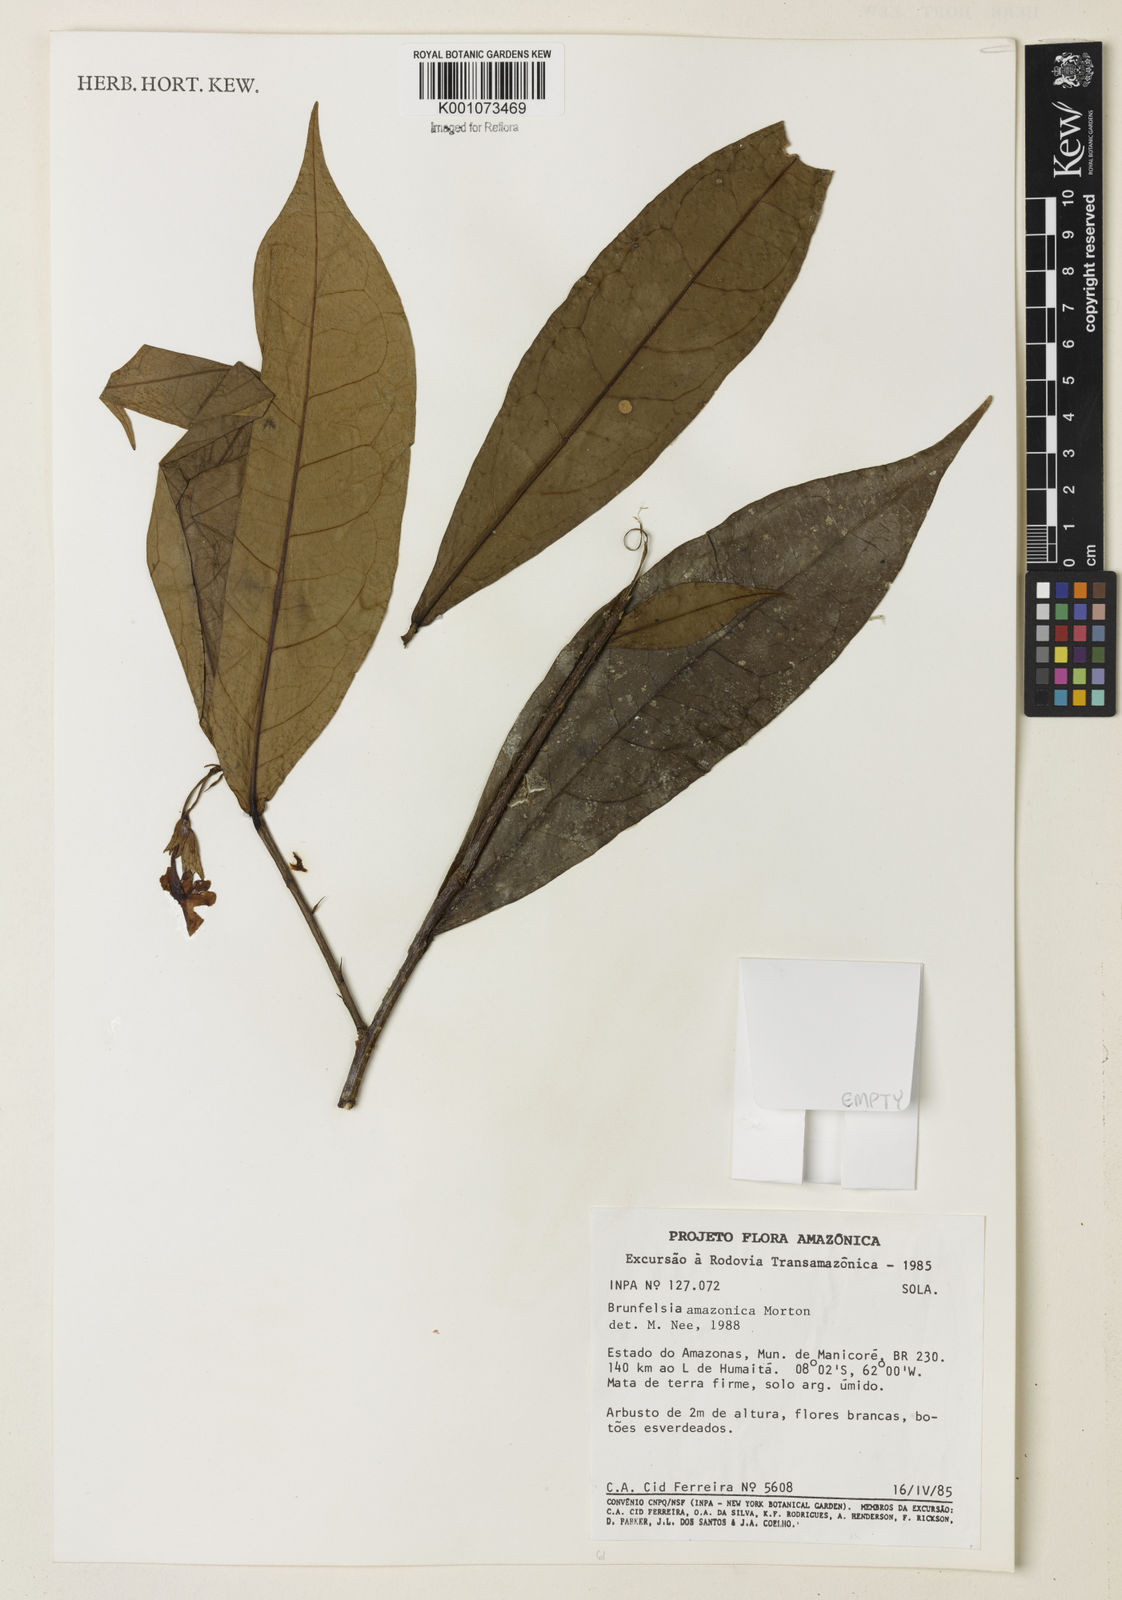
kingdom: Plantae
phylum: Tracheophyta
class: Magnoliopsida
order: Solanales
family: Solanaceae
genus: Brunfelsia
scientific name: Brunfelsia amazonica
